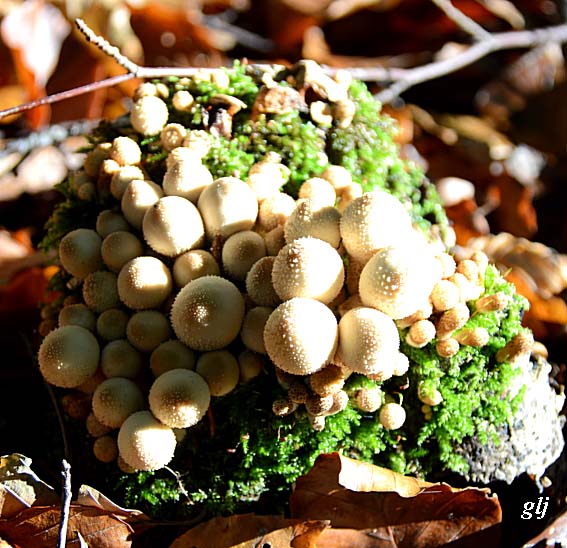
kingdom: Fungi
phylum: Basidiomycota
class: Agaricomycetes
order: Agaricales
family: Lycoperdaceae
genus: Apioperdon
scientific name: Apioperdon pyriforme
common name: pære-støvbold
